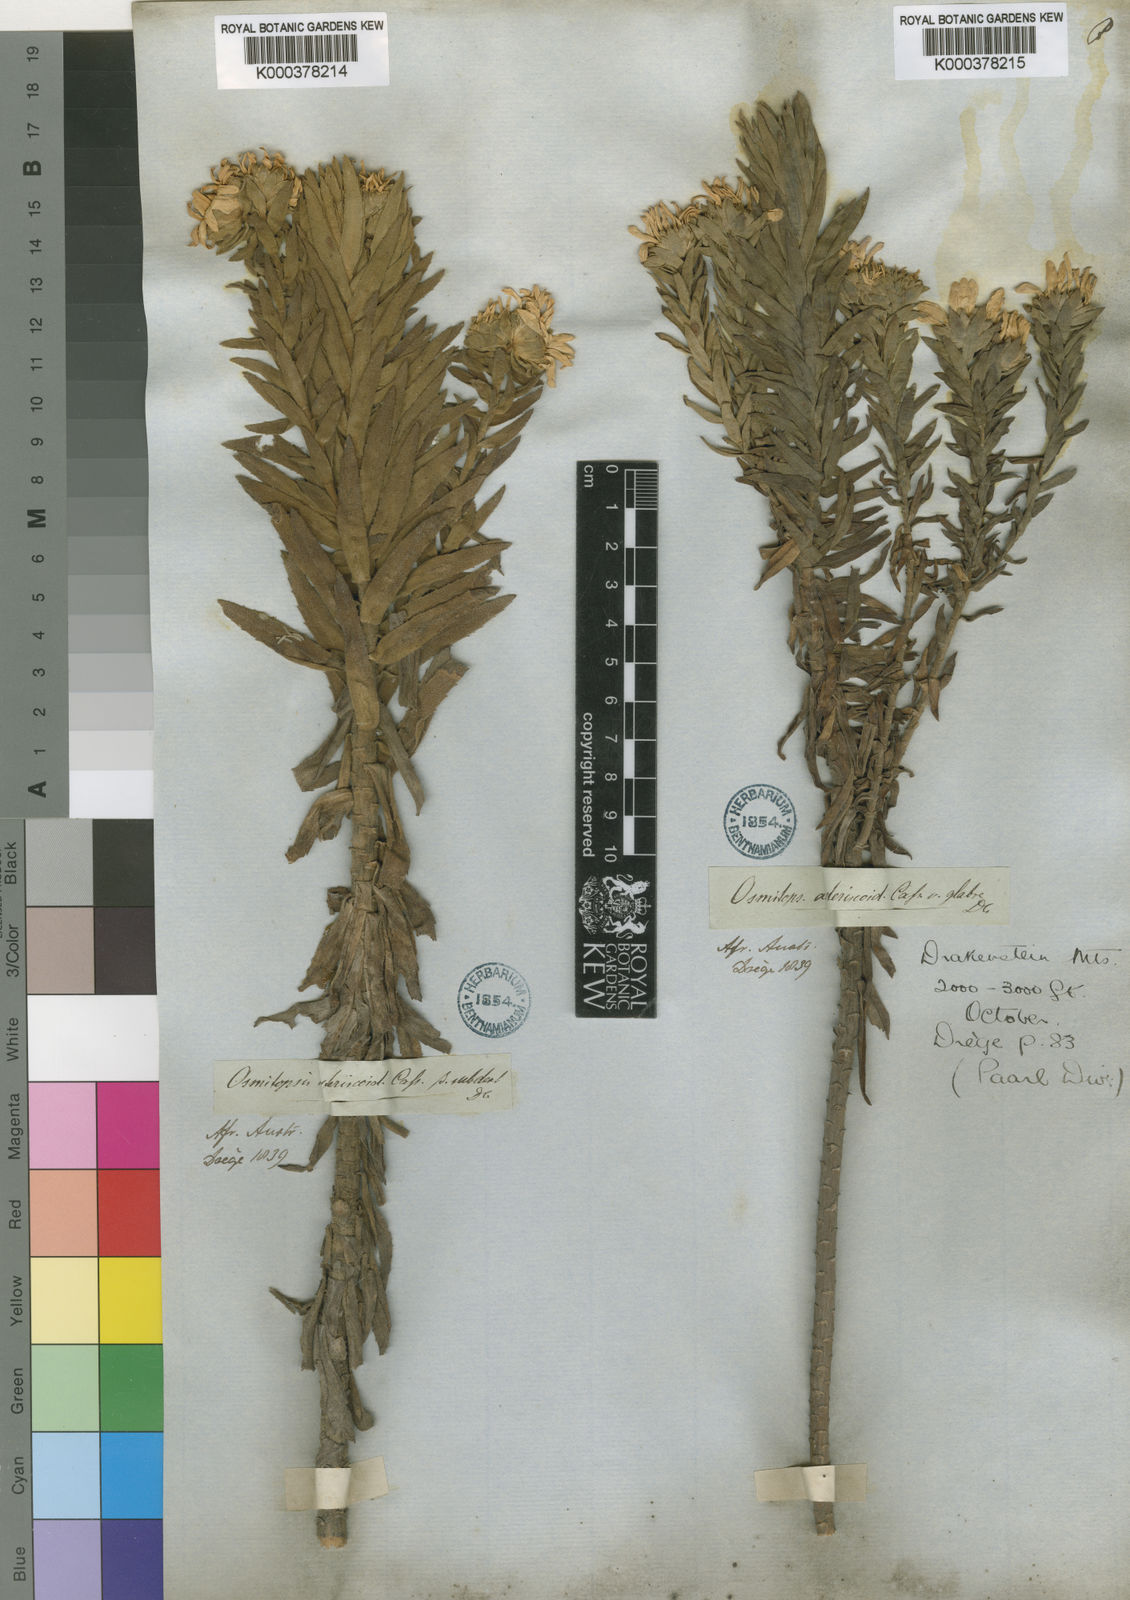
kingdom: Plantae
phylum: Tracheophyta
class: Magnoliopsida
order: Asterales
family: Asteraceae
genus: Osmitopsis
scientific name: Osmitopsis asteriscoides
